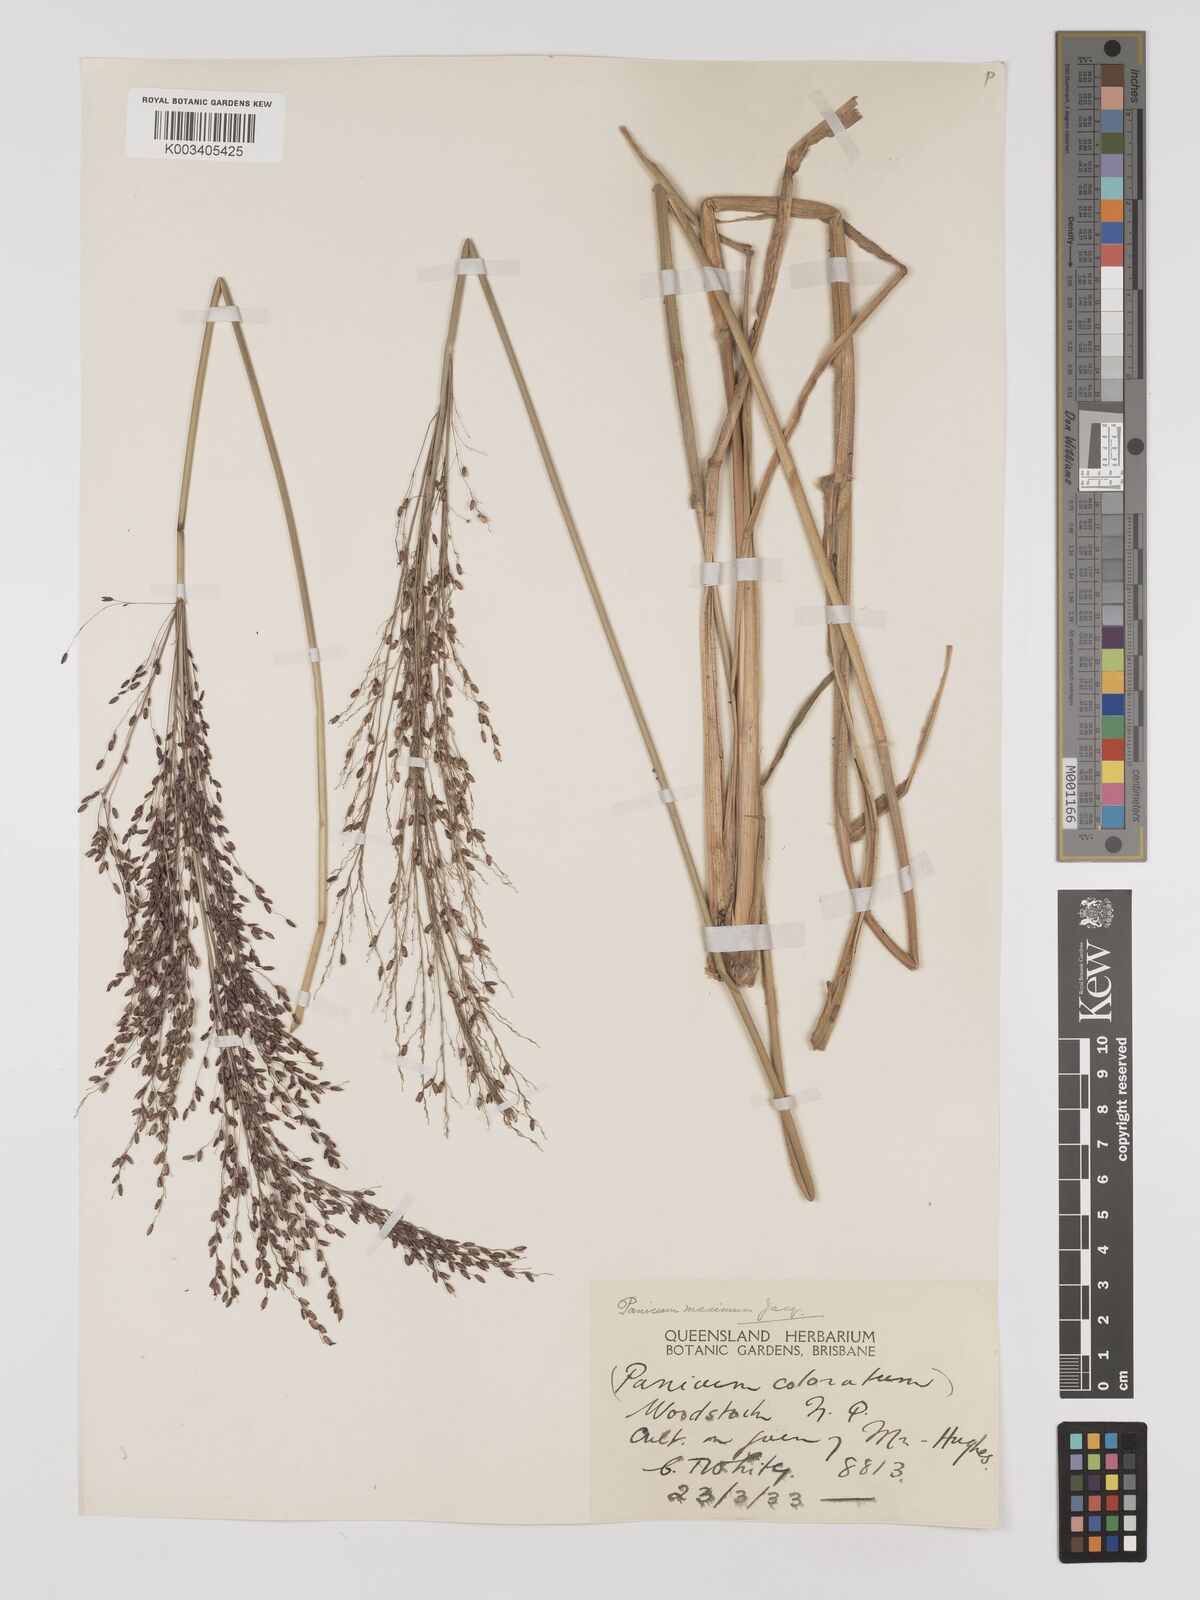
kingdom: Plantae
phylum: Tracheophyta
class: Liliopsida
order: Poales
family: Poaceae
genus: Megathyrsus
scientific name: Megathyrsus maximus
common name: Guineagrass
